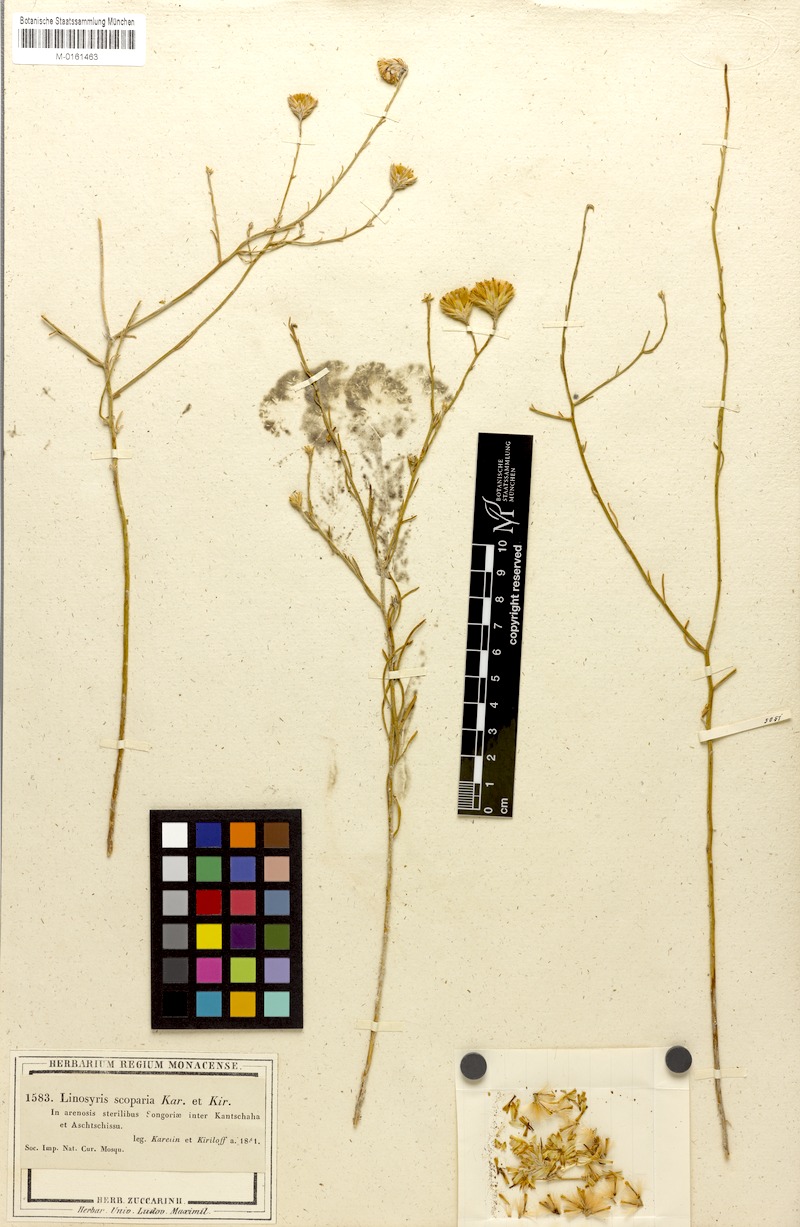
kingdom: Plantae
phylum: Tracheophyta
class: Magnoliopsida
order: Asterales
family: Asteraceae
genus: Galatella
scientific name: Galatella scoparia
